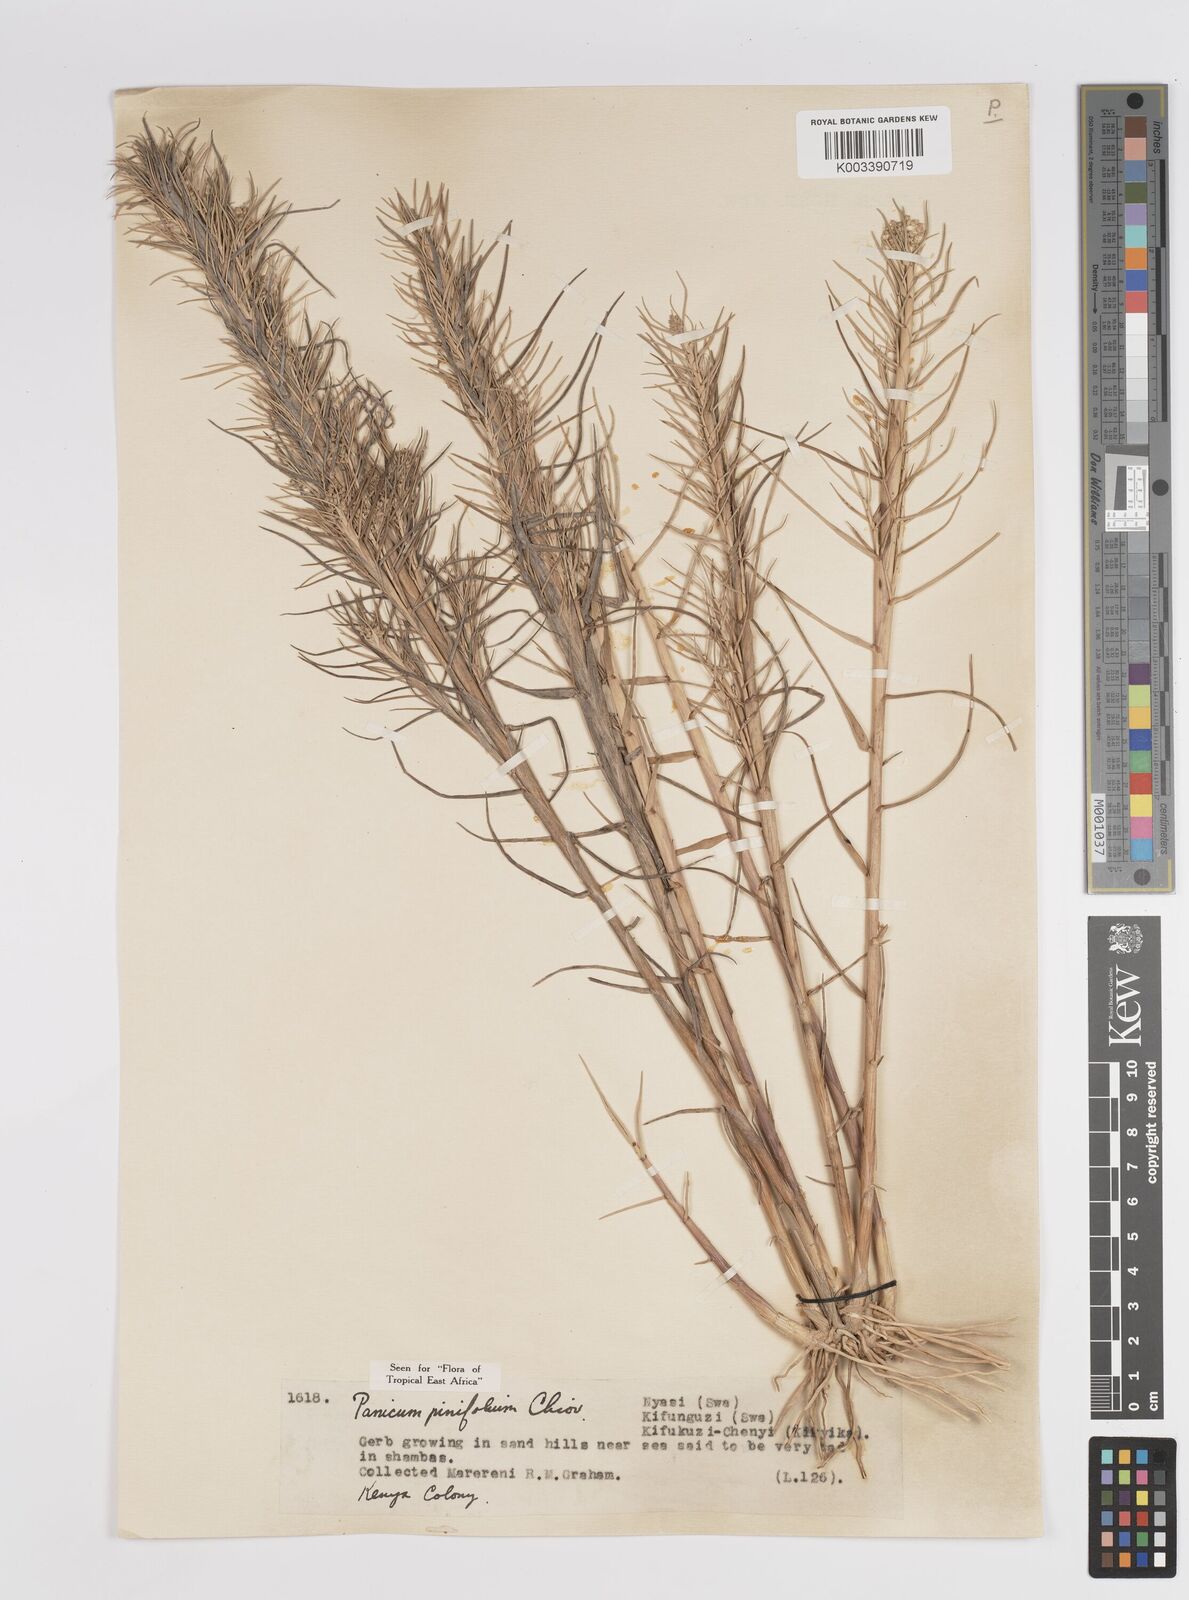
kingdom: Plantae
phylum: Tracheophyta
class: Liliopsida
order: Poales
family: Poaceae
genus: Panicum
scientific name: Panicum pinifolium
